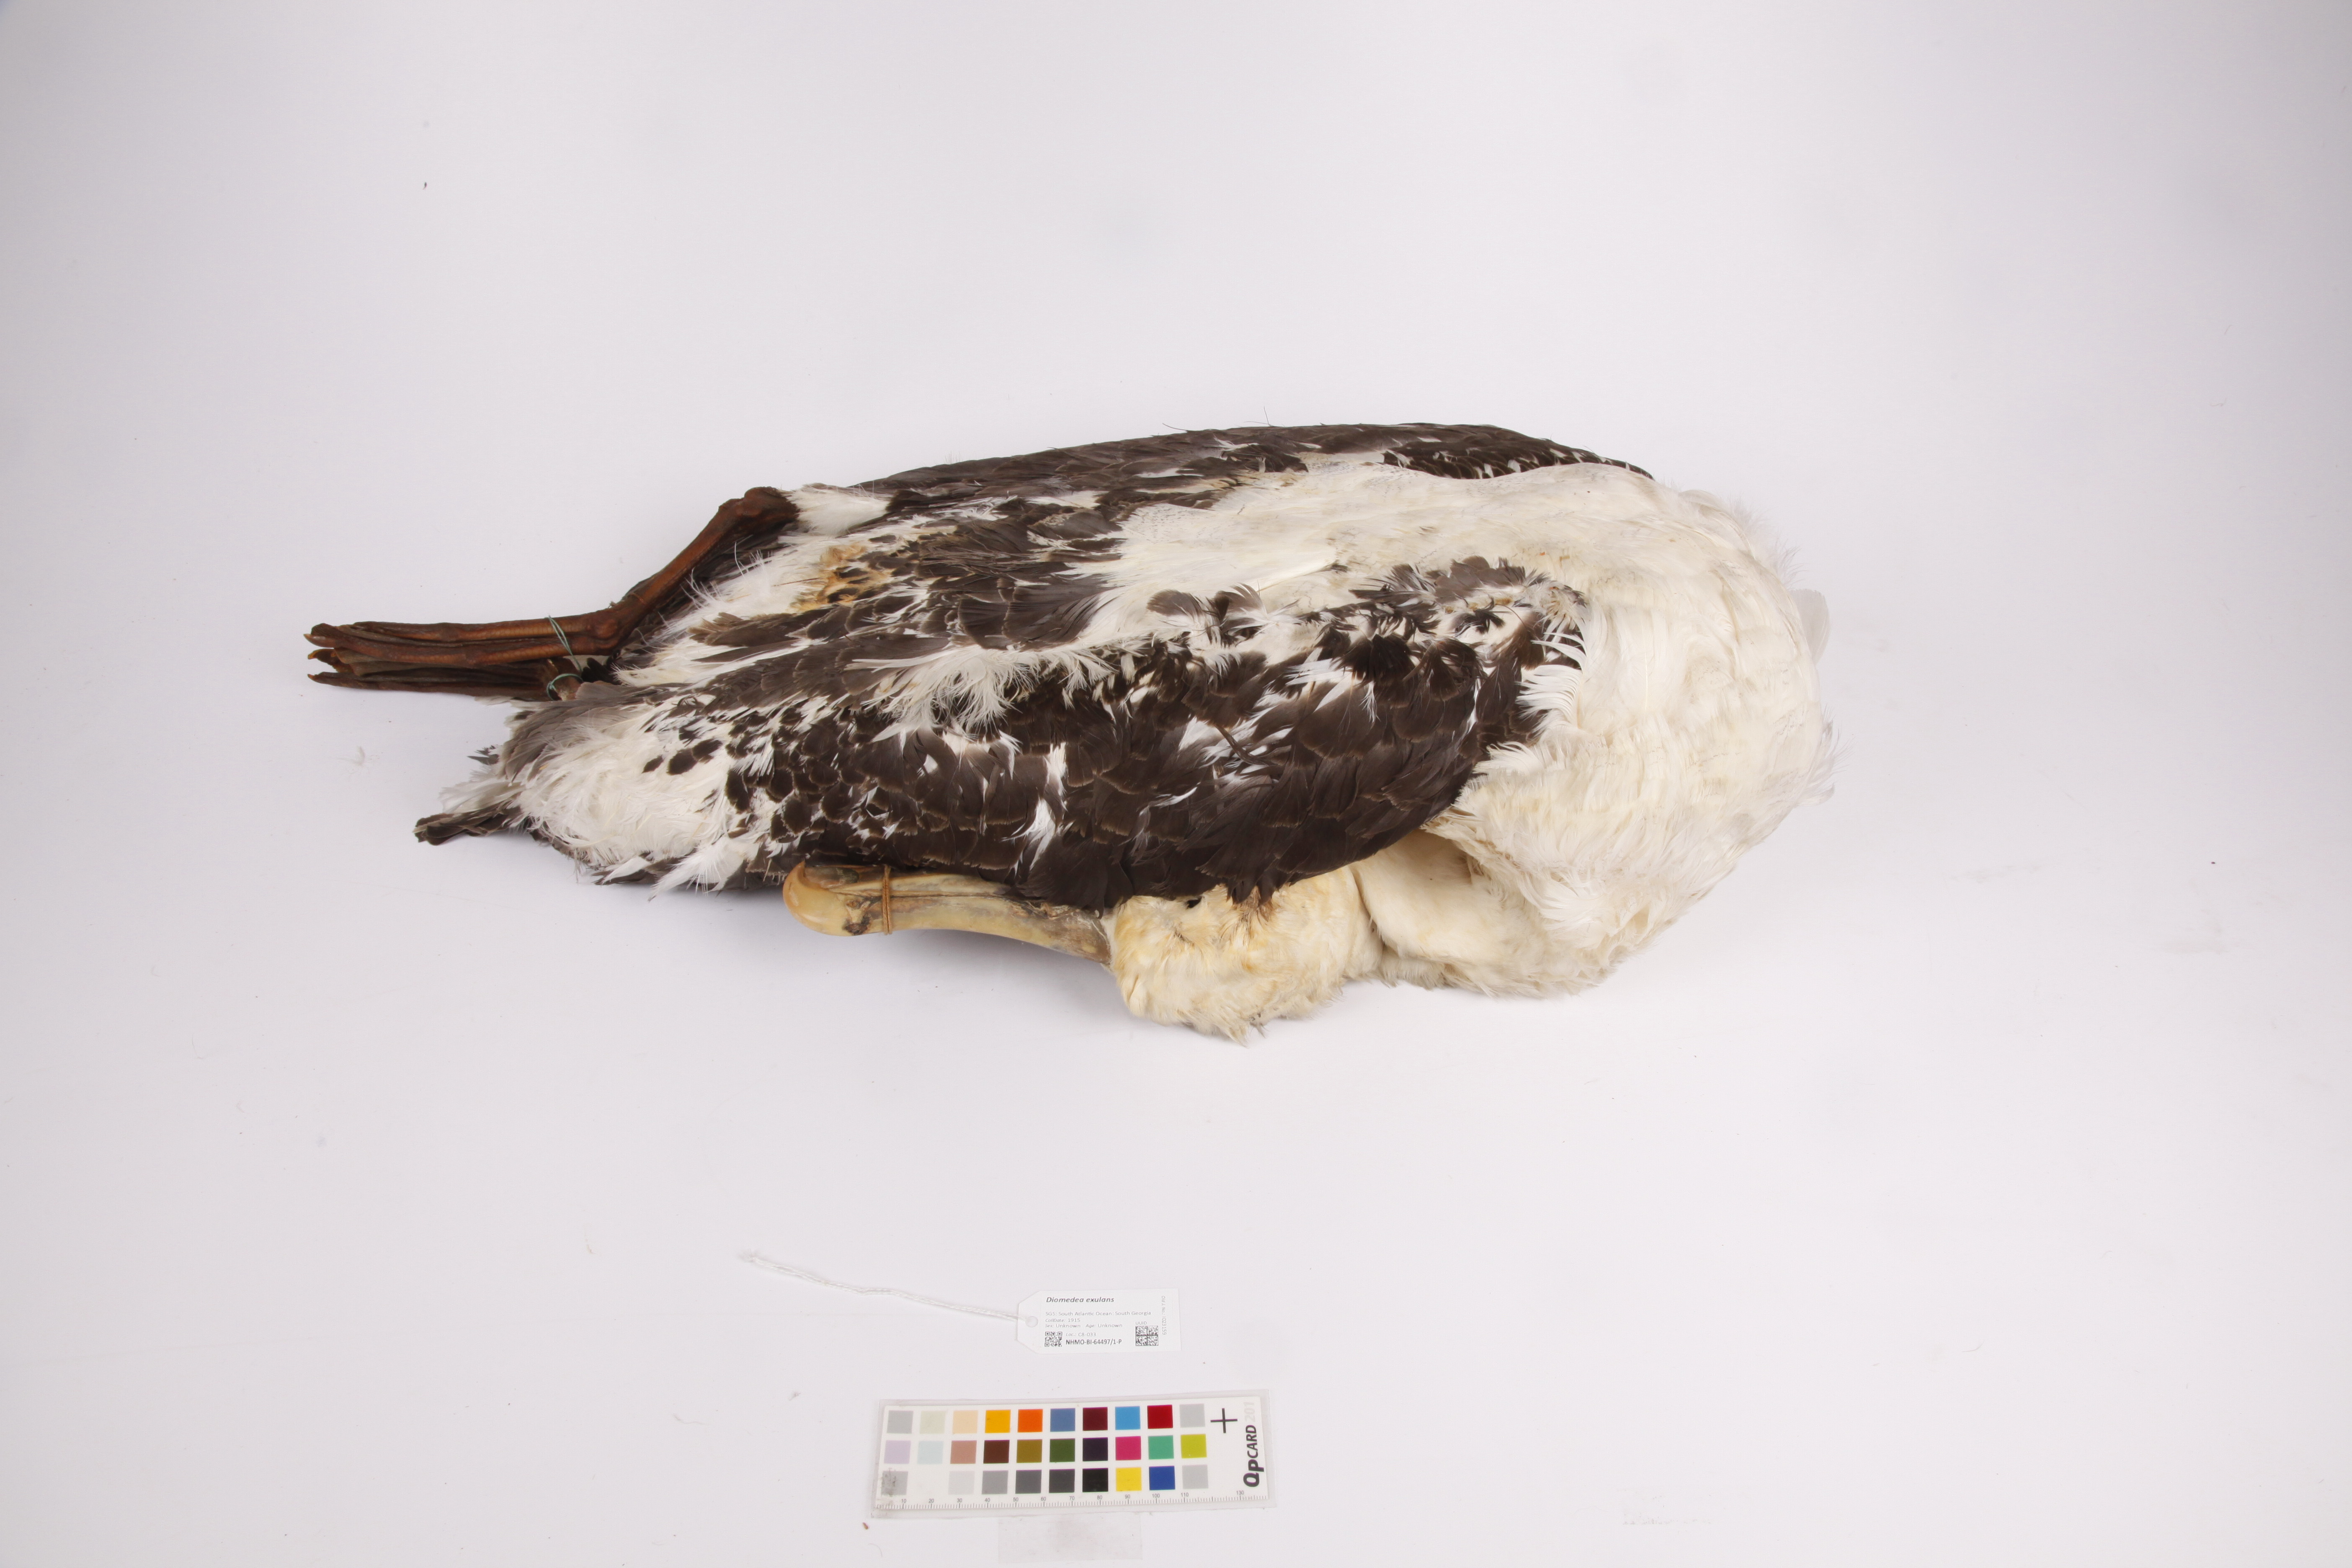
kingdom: Animalia
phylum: Chordata
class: Aves
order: Procellariiformes
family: Diomedeidae
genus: Diomedea
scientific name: Diomedea exulans
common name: Wandering albatross
